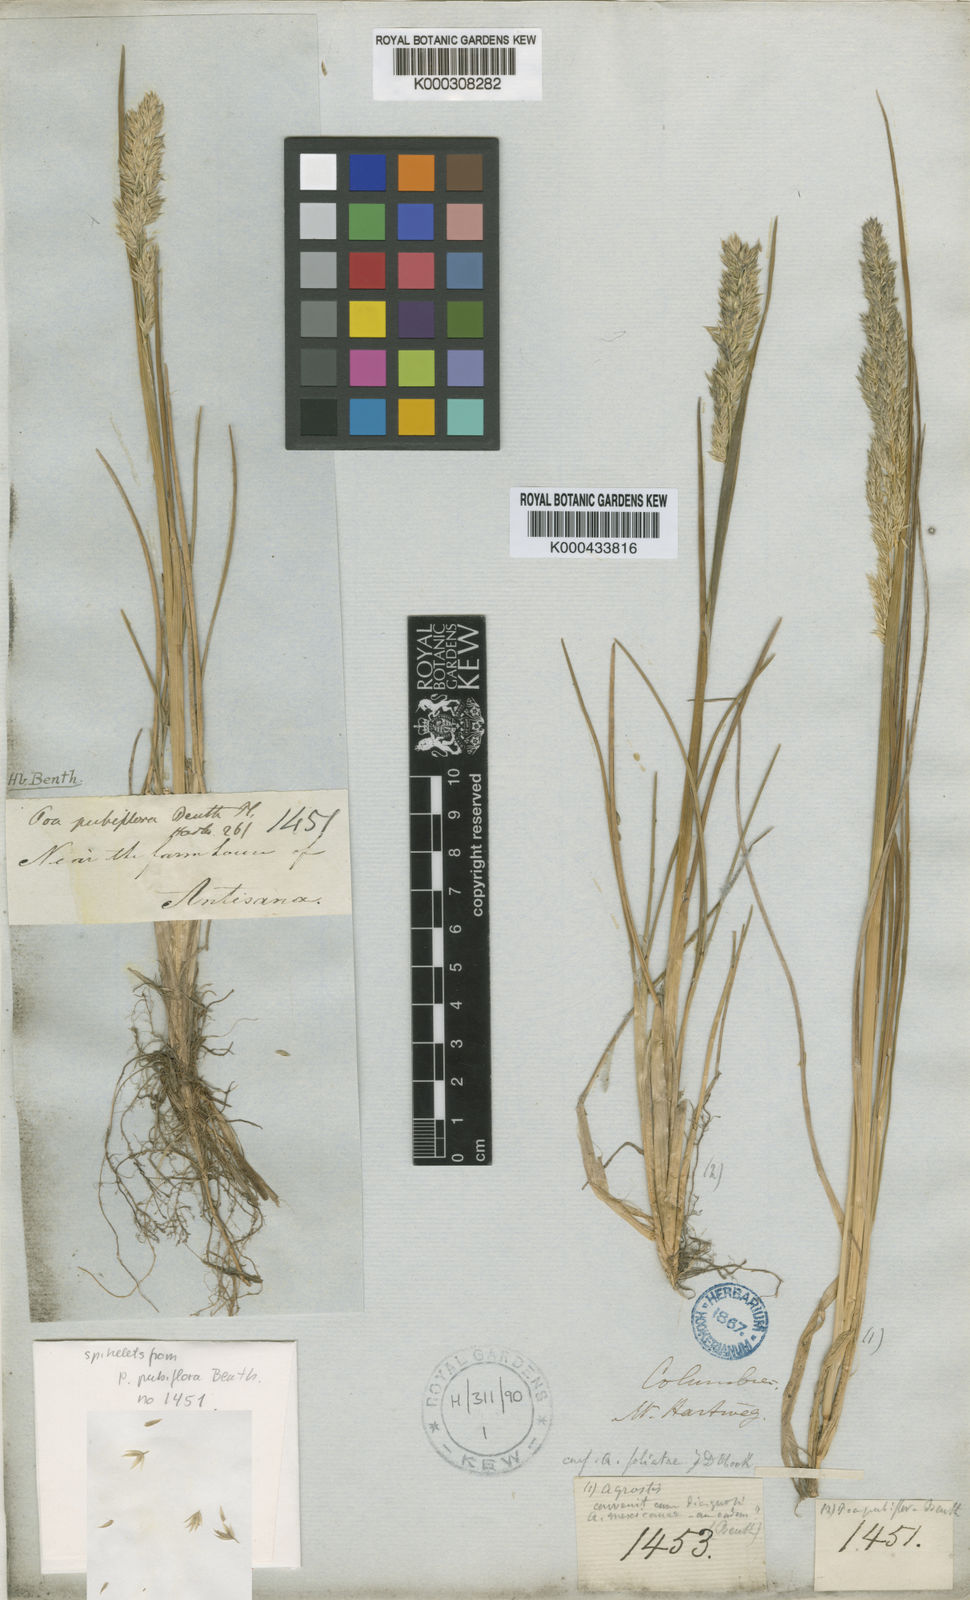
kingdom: Plantae
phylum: Tracheophyta
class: Liliopsida
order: Poales
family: Poaceae
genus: Poa
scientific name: Poa subspicata
